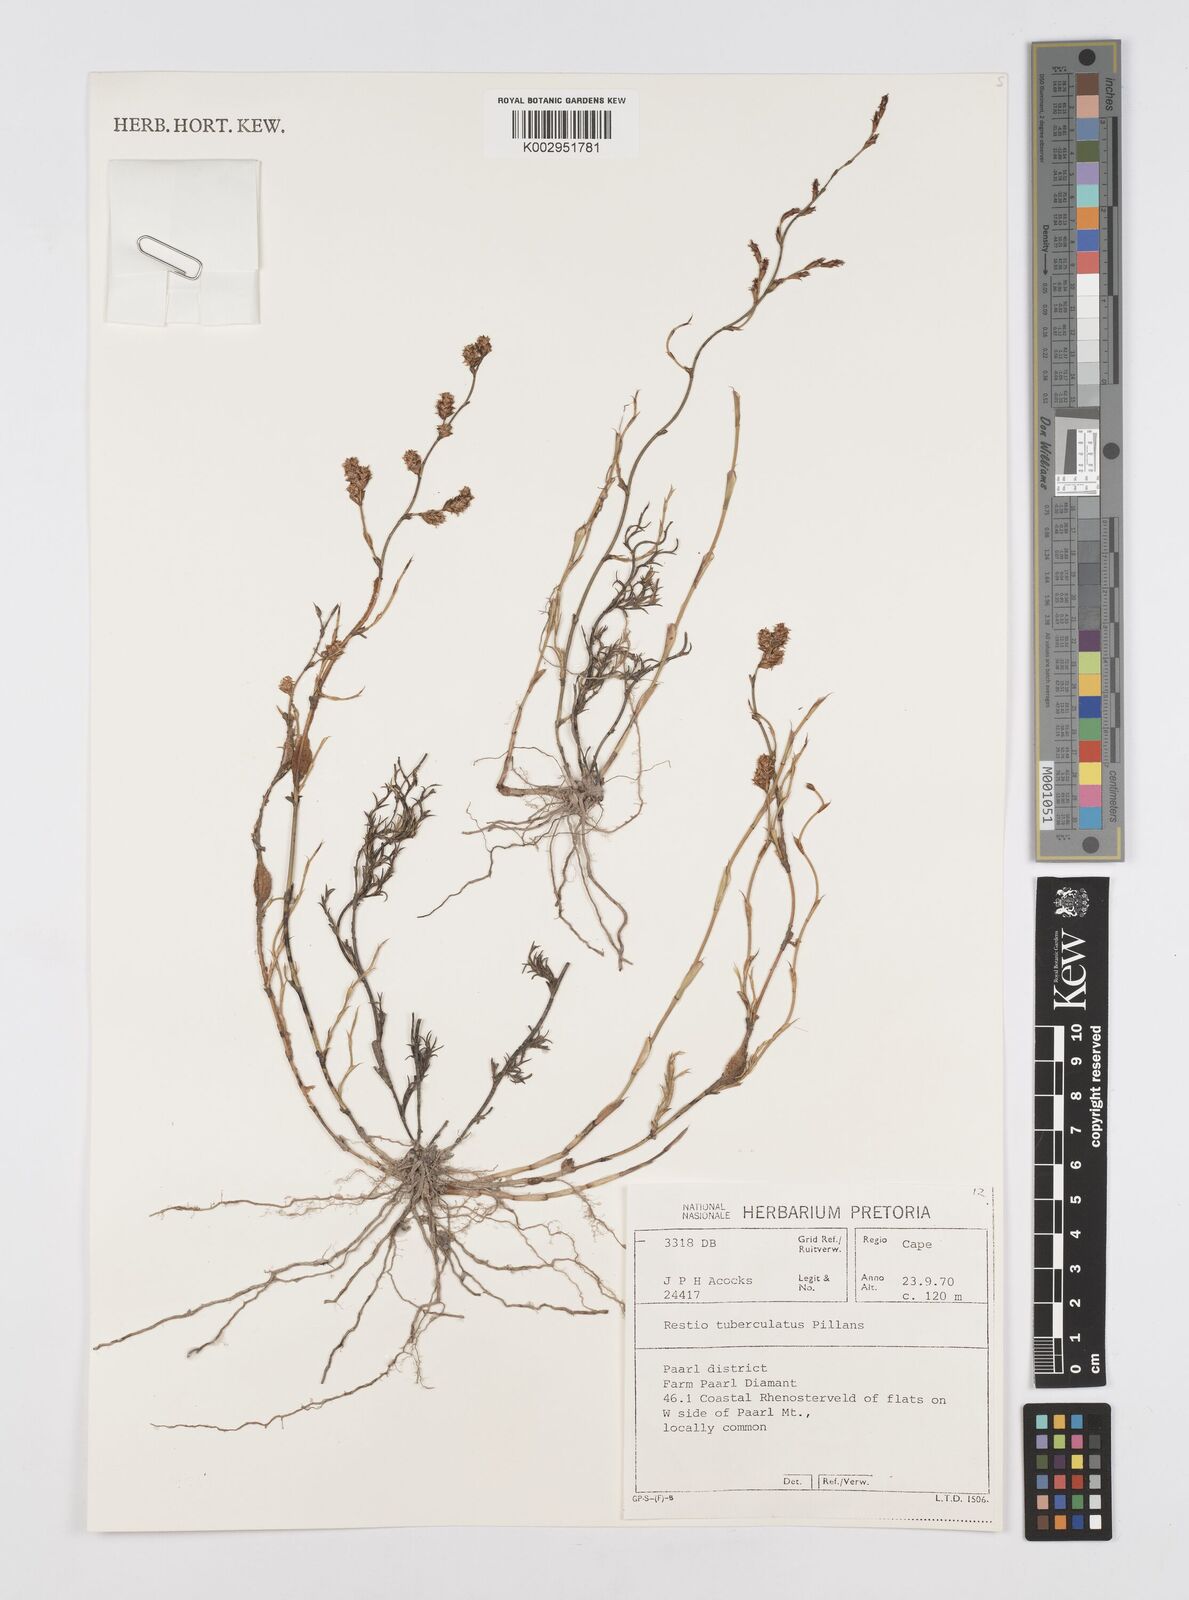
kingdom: Plantae
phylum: Tracheophyta
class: Liliopsida
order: Poales
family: Restionaceae
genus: Restio
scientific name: Restio tuberculatus
